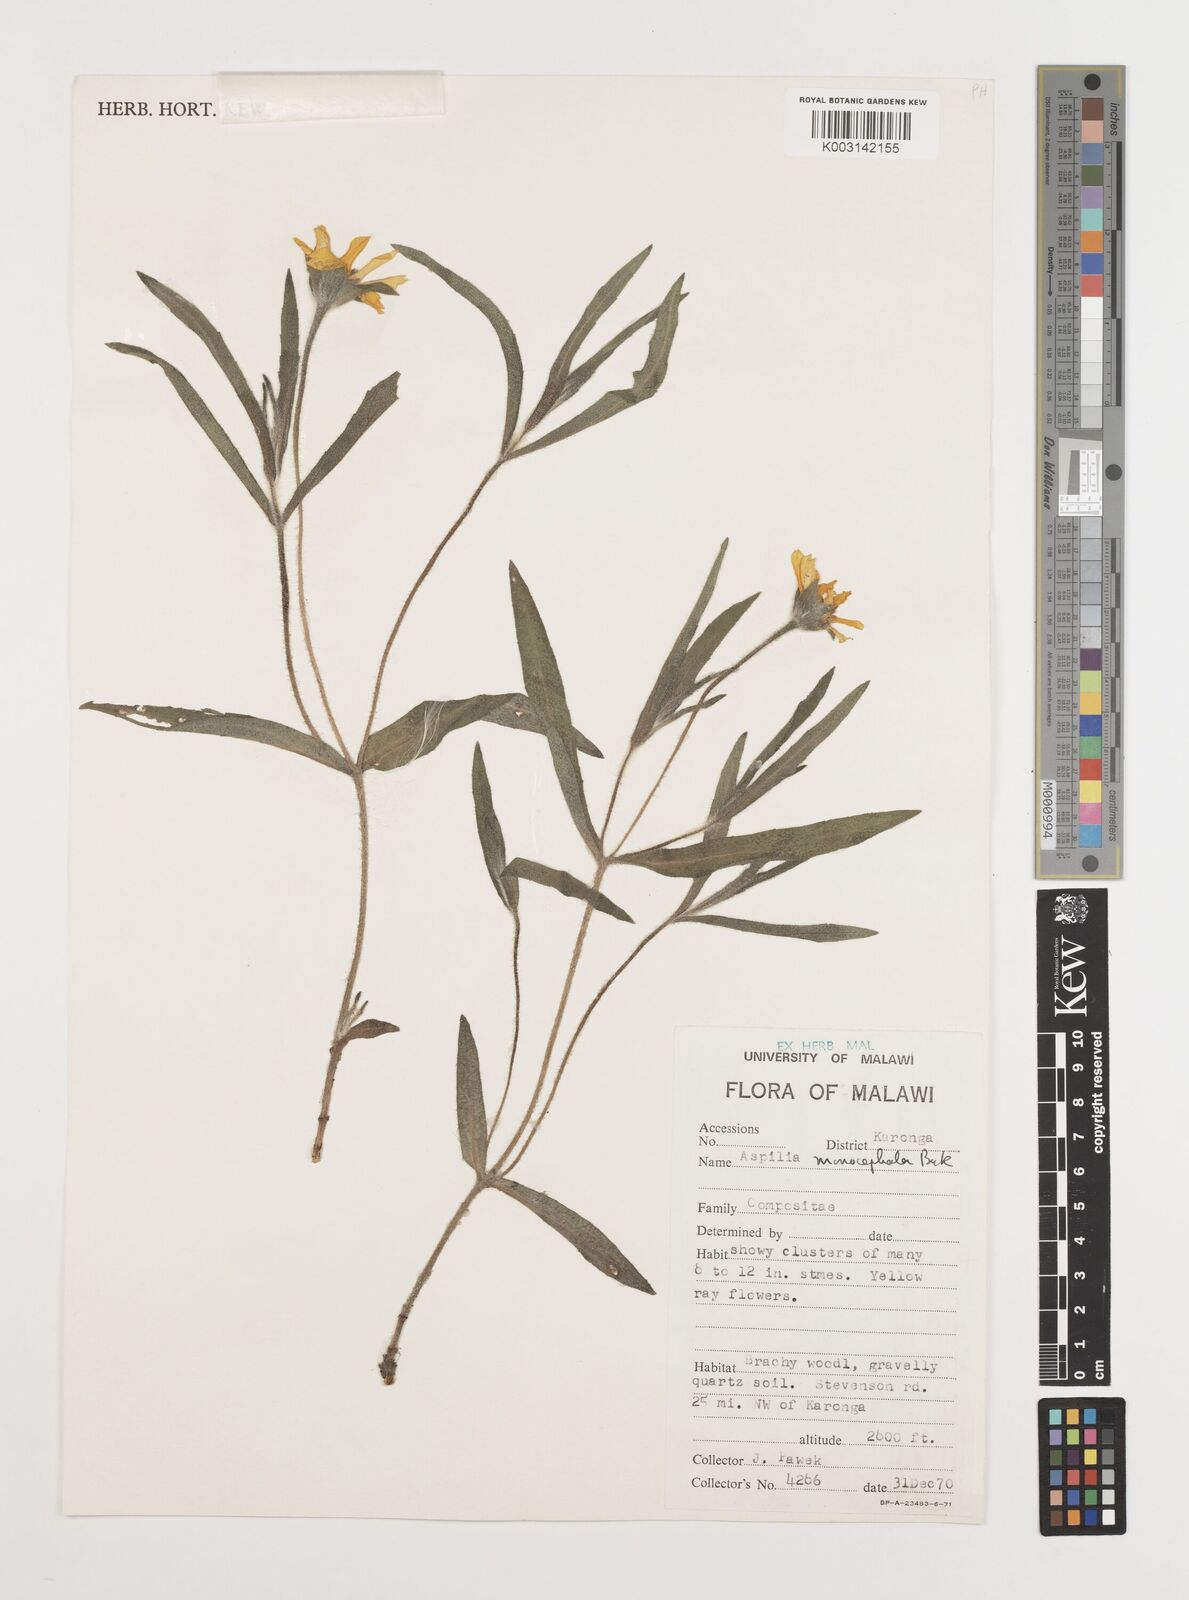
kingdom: Plantae
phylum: Tracheophyta
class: Magnoliopsida
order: Asterales
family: Asteraceae
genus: Aspilia
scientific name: Aspilia natalensis
